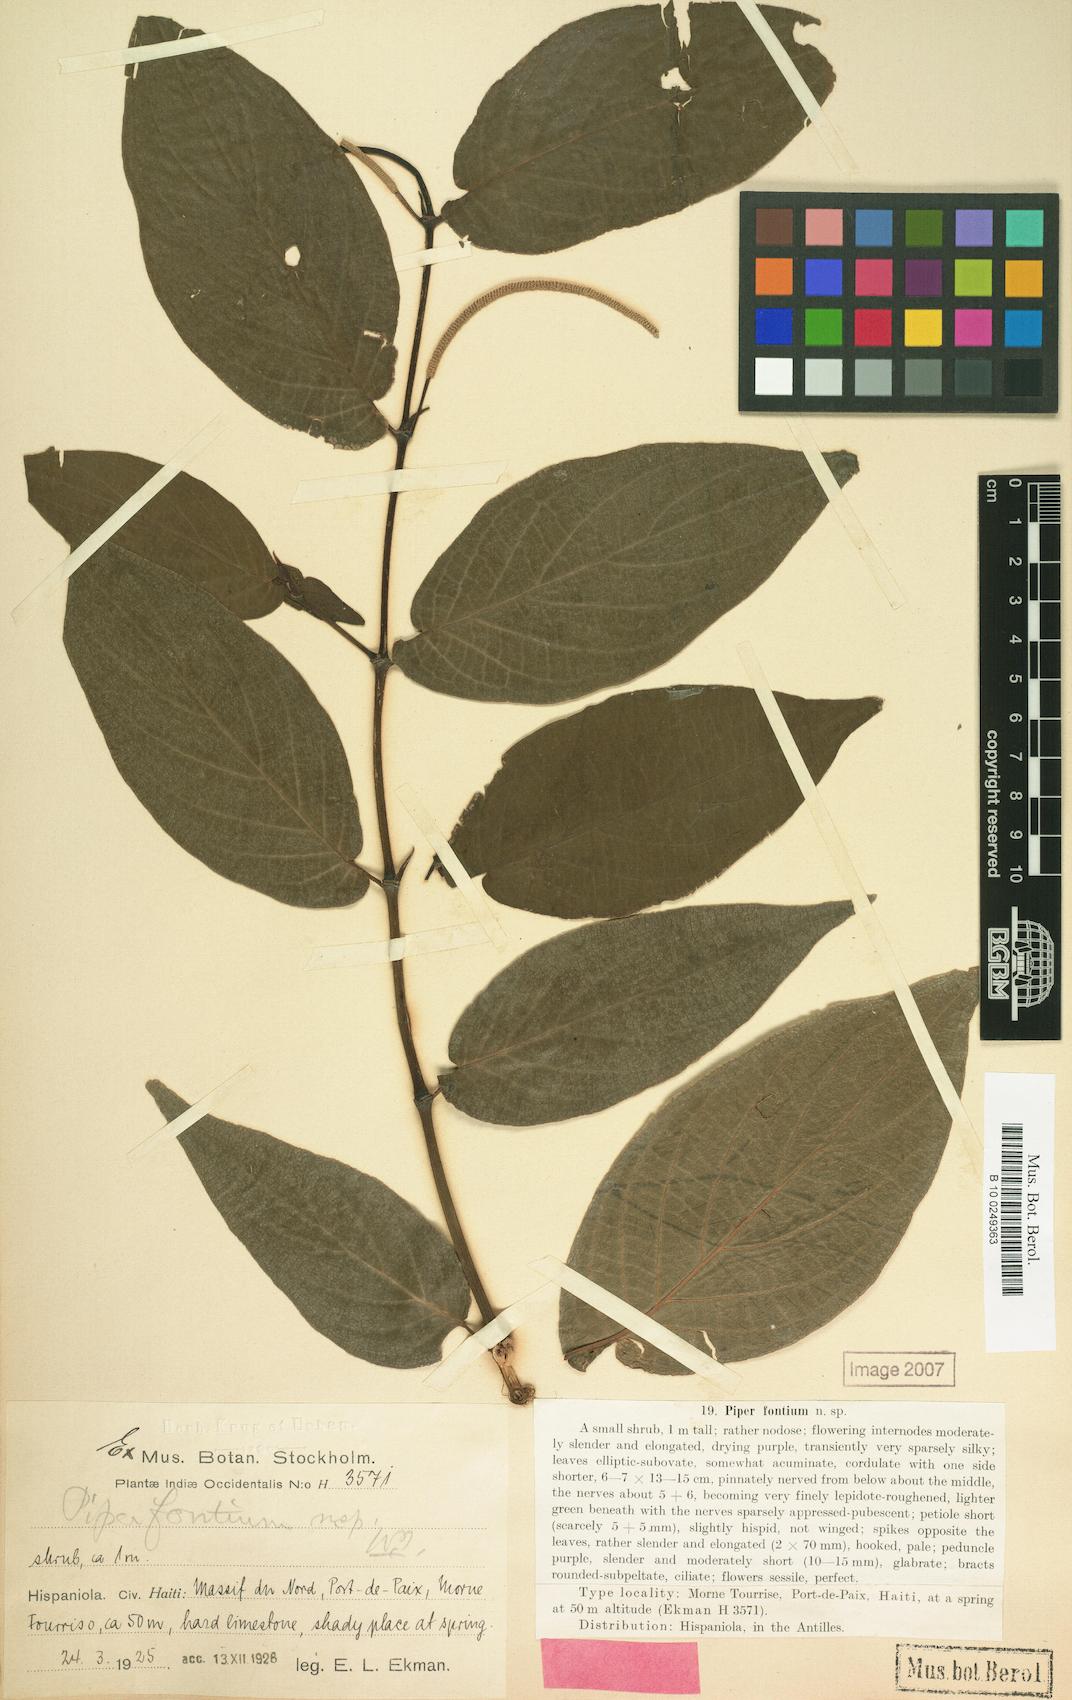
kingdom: Plantae
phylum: Tracheophyta
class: Magnoliopsida
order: Piperales
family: Piperaceae
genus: Piper
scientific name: Piper constanzanum
